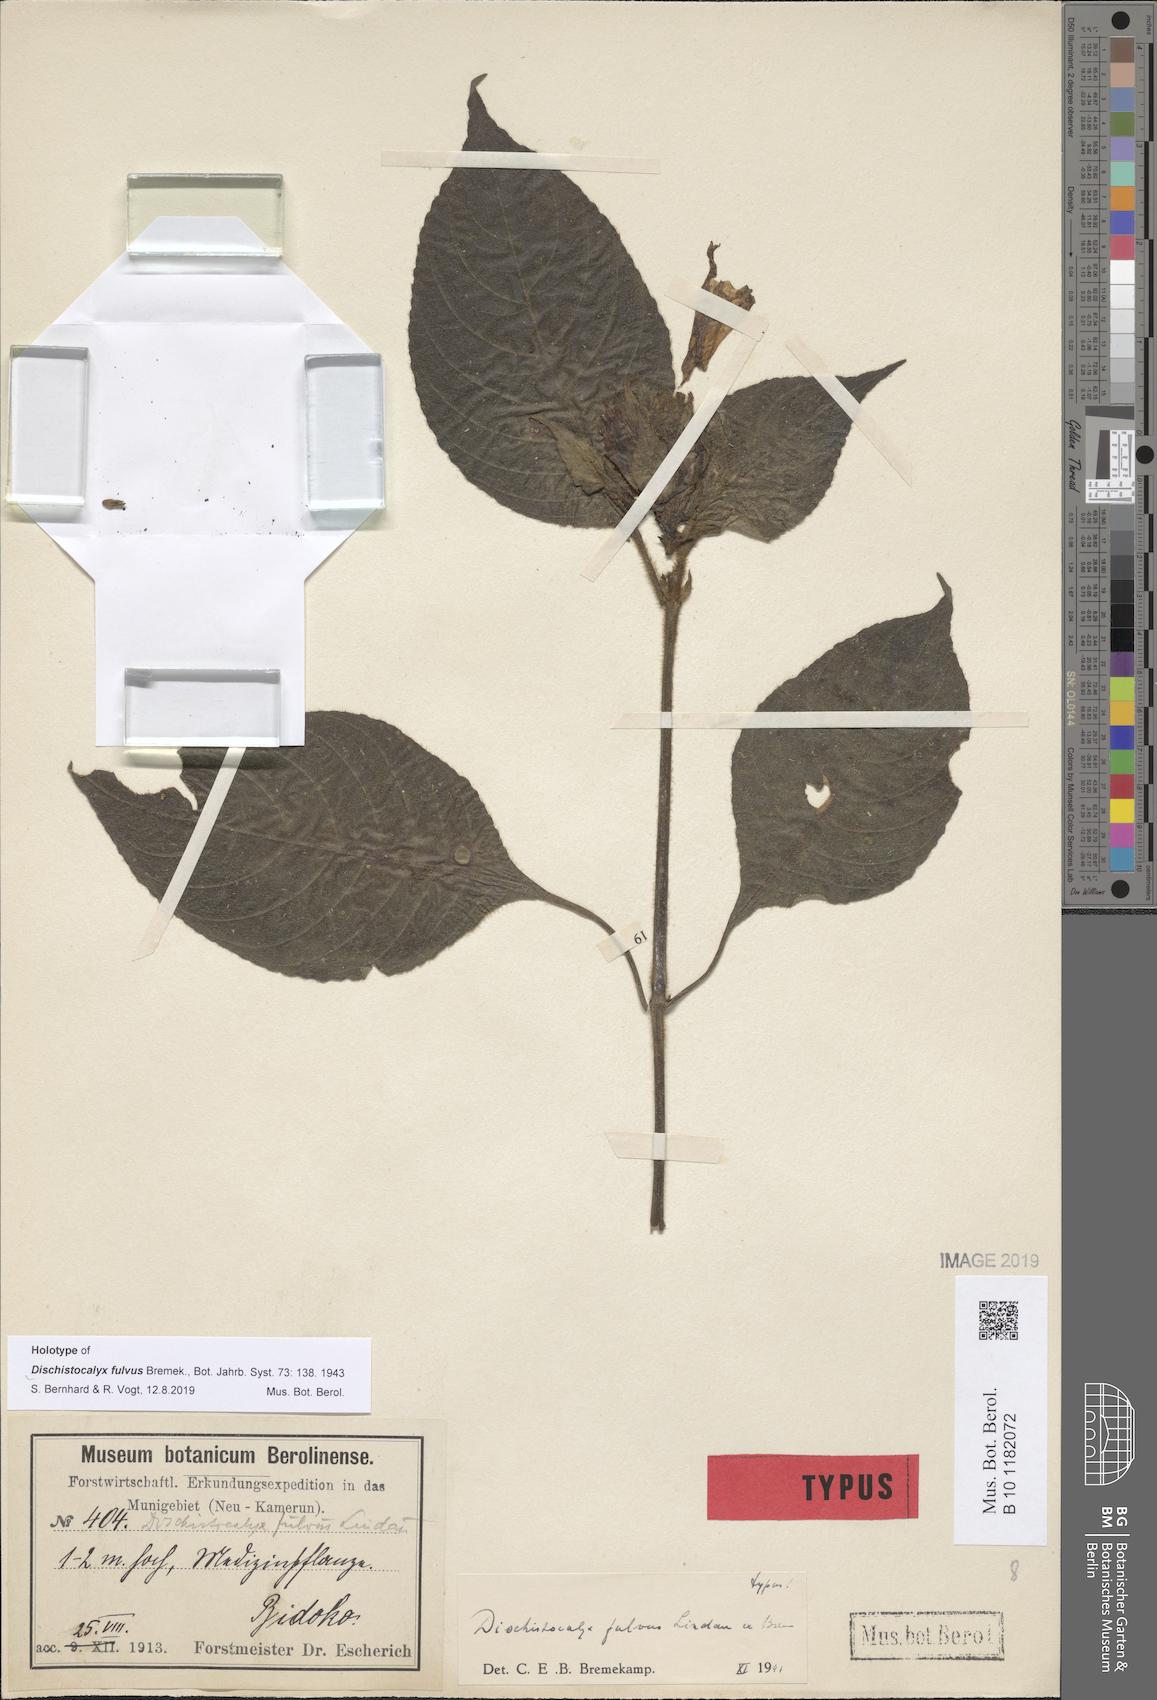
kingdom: Plantae
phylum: Tracheophyta
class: Magnoliopsida
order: Lamiales
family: Acanthaceae
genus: Dischistocalyx
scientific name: Dischistocalyx hirsutus
